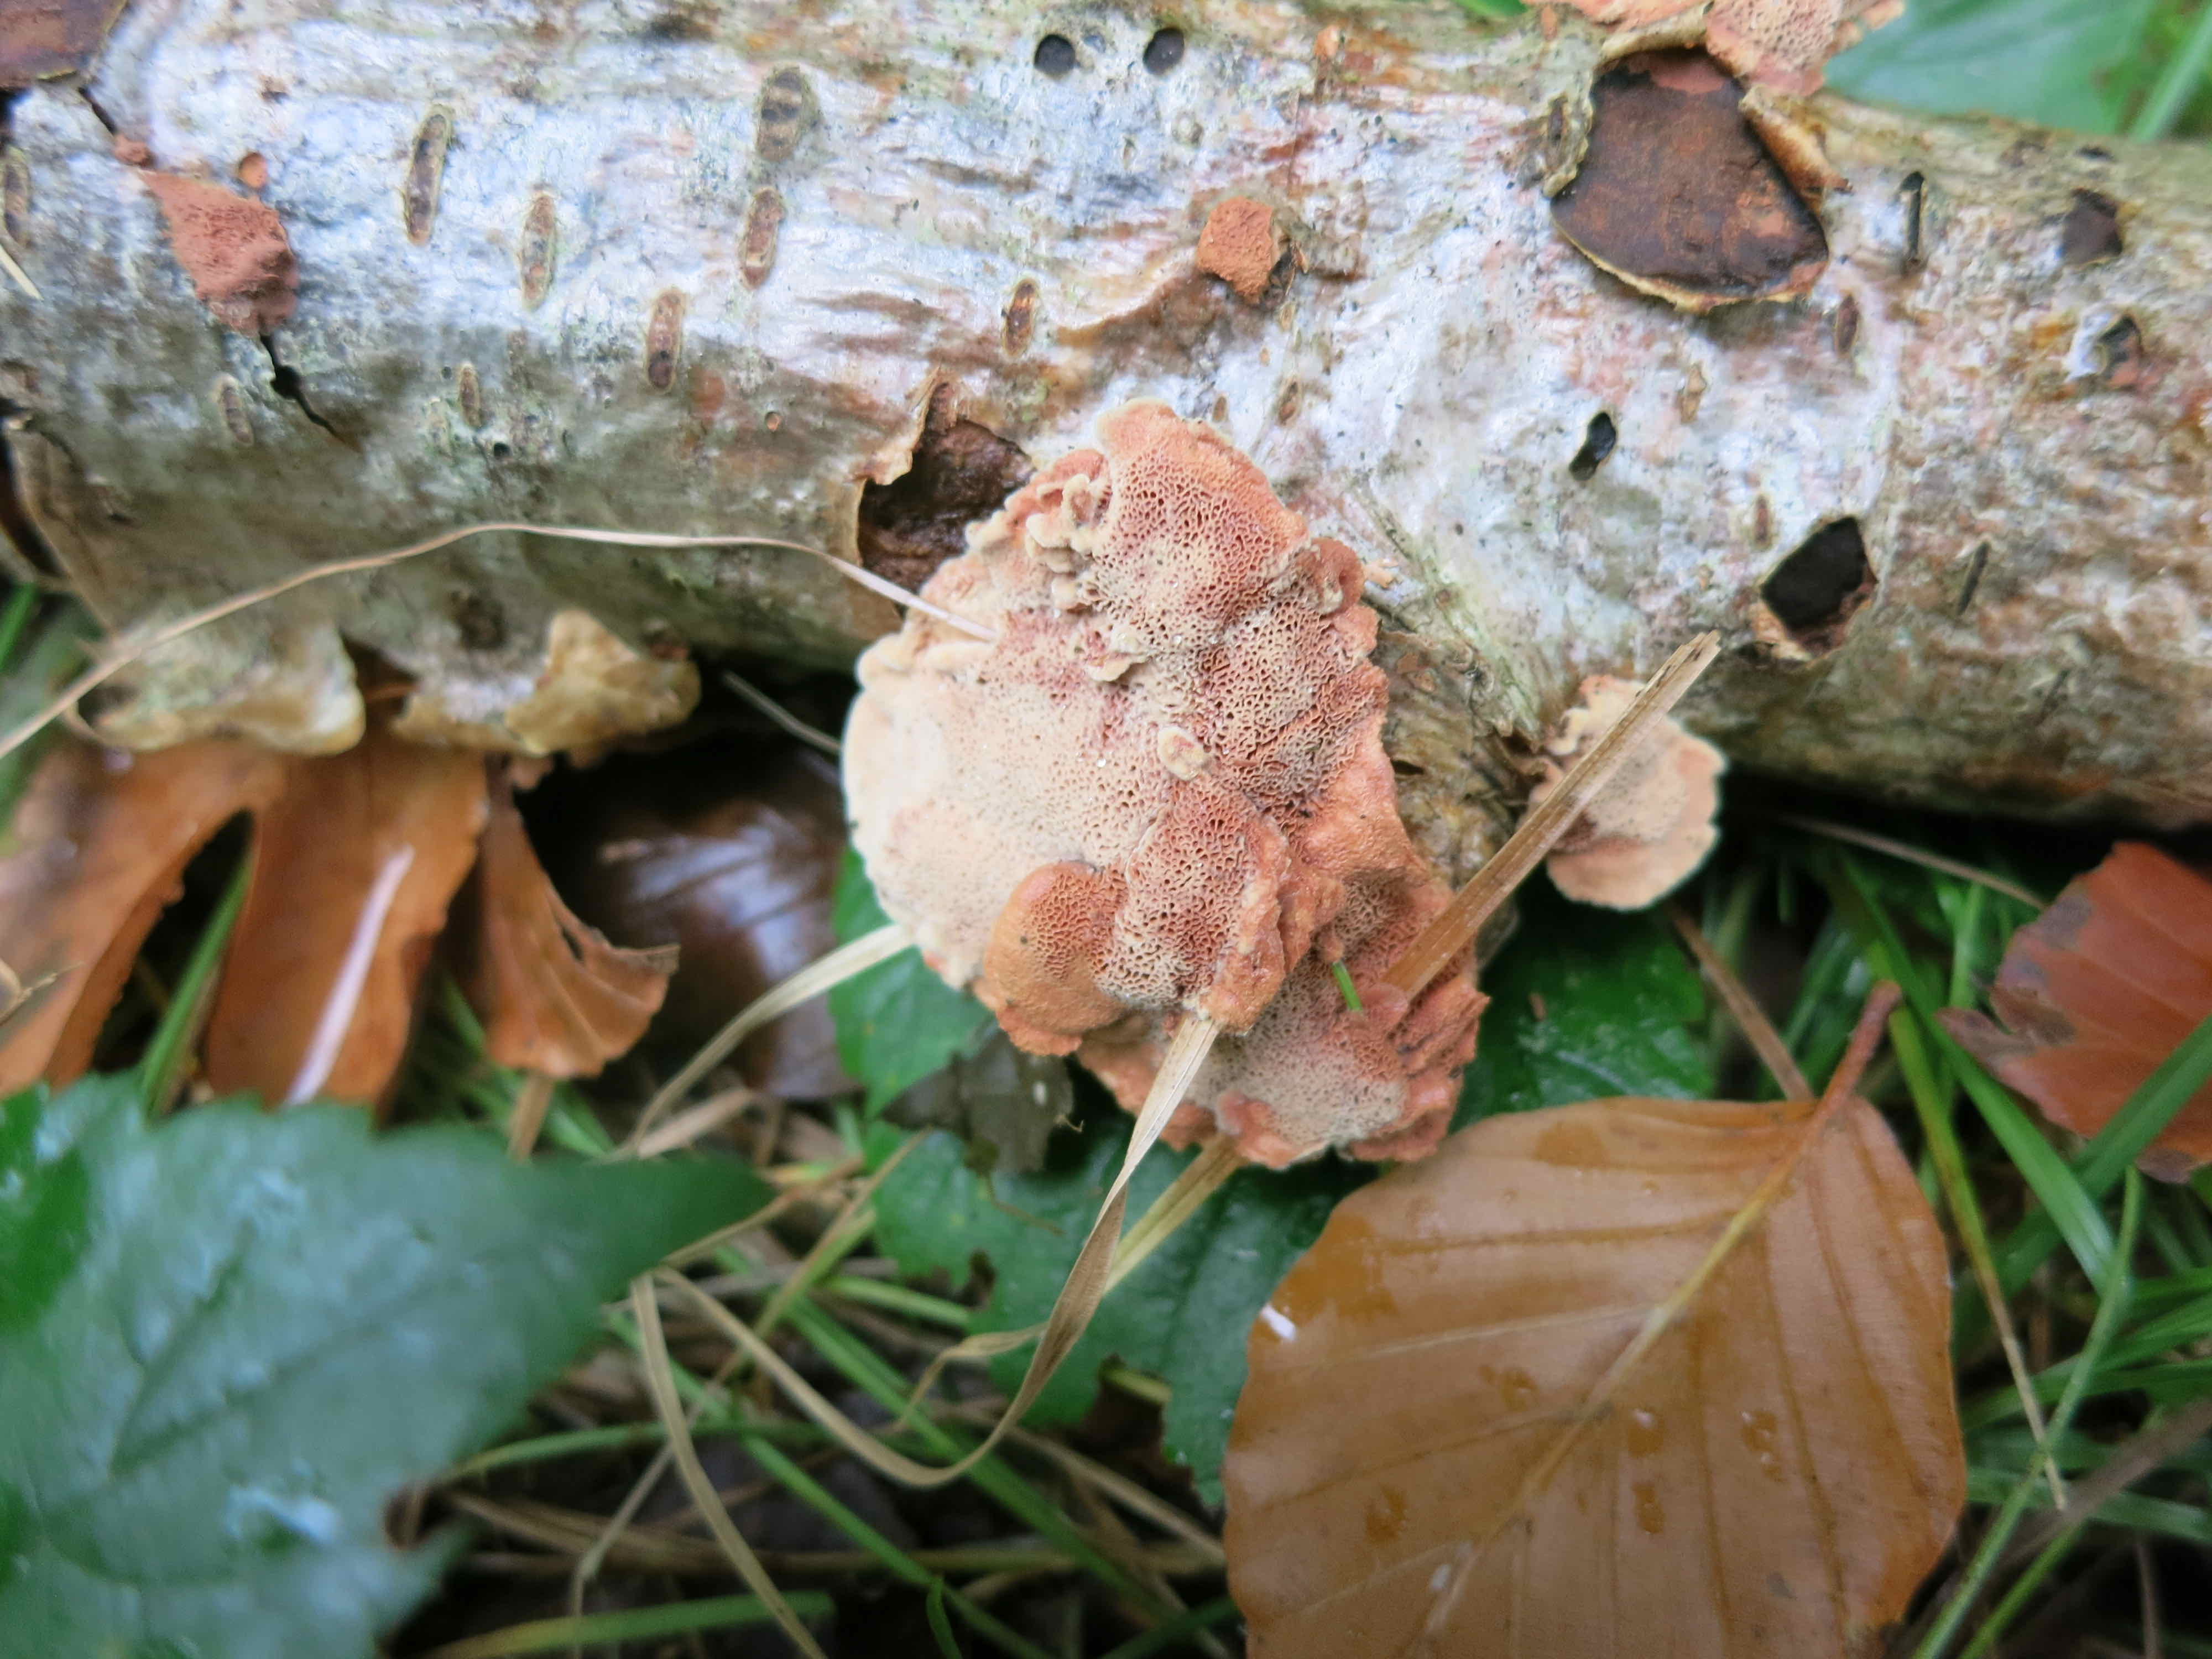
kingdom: Fungi
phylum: Basidiomycota
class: Agaricomycetes
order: Polyporales
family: Phanerochaetaceae
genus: Hapalopilus
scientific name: Hapalopilus rutilans
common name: rødlig okkerporesvamp
